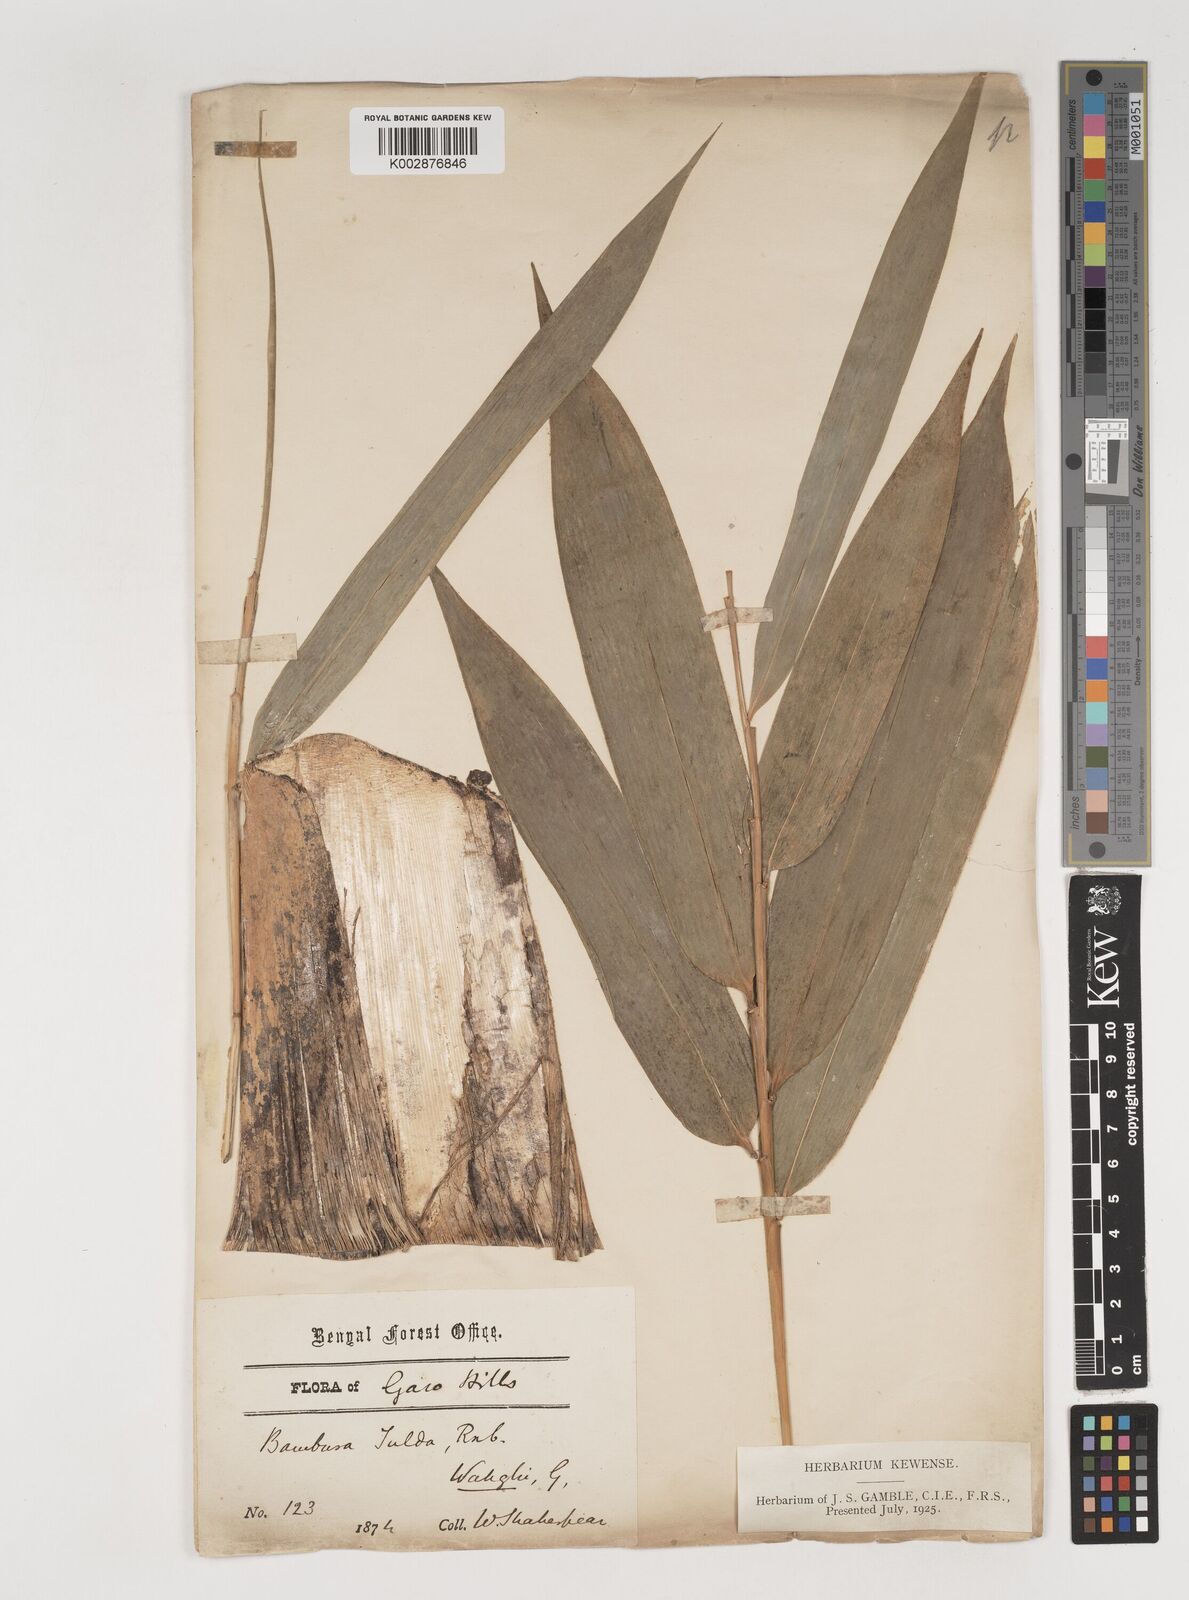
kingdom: Plantae
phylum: Tracheophyta
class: Liliopsida
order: Poales
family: Poaceae
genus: Bambusa
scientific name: Bambusa tulda
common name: Bengal bamboo
